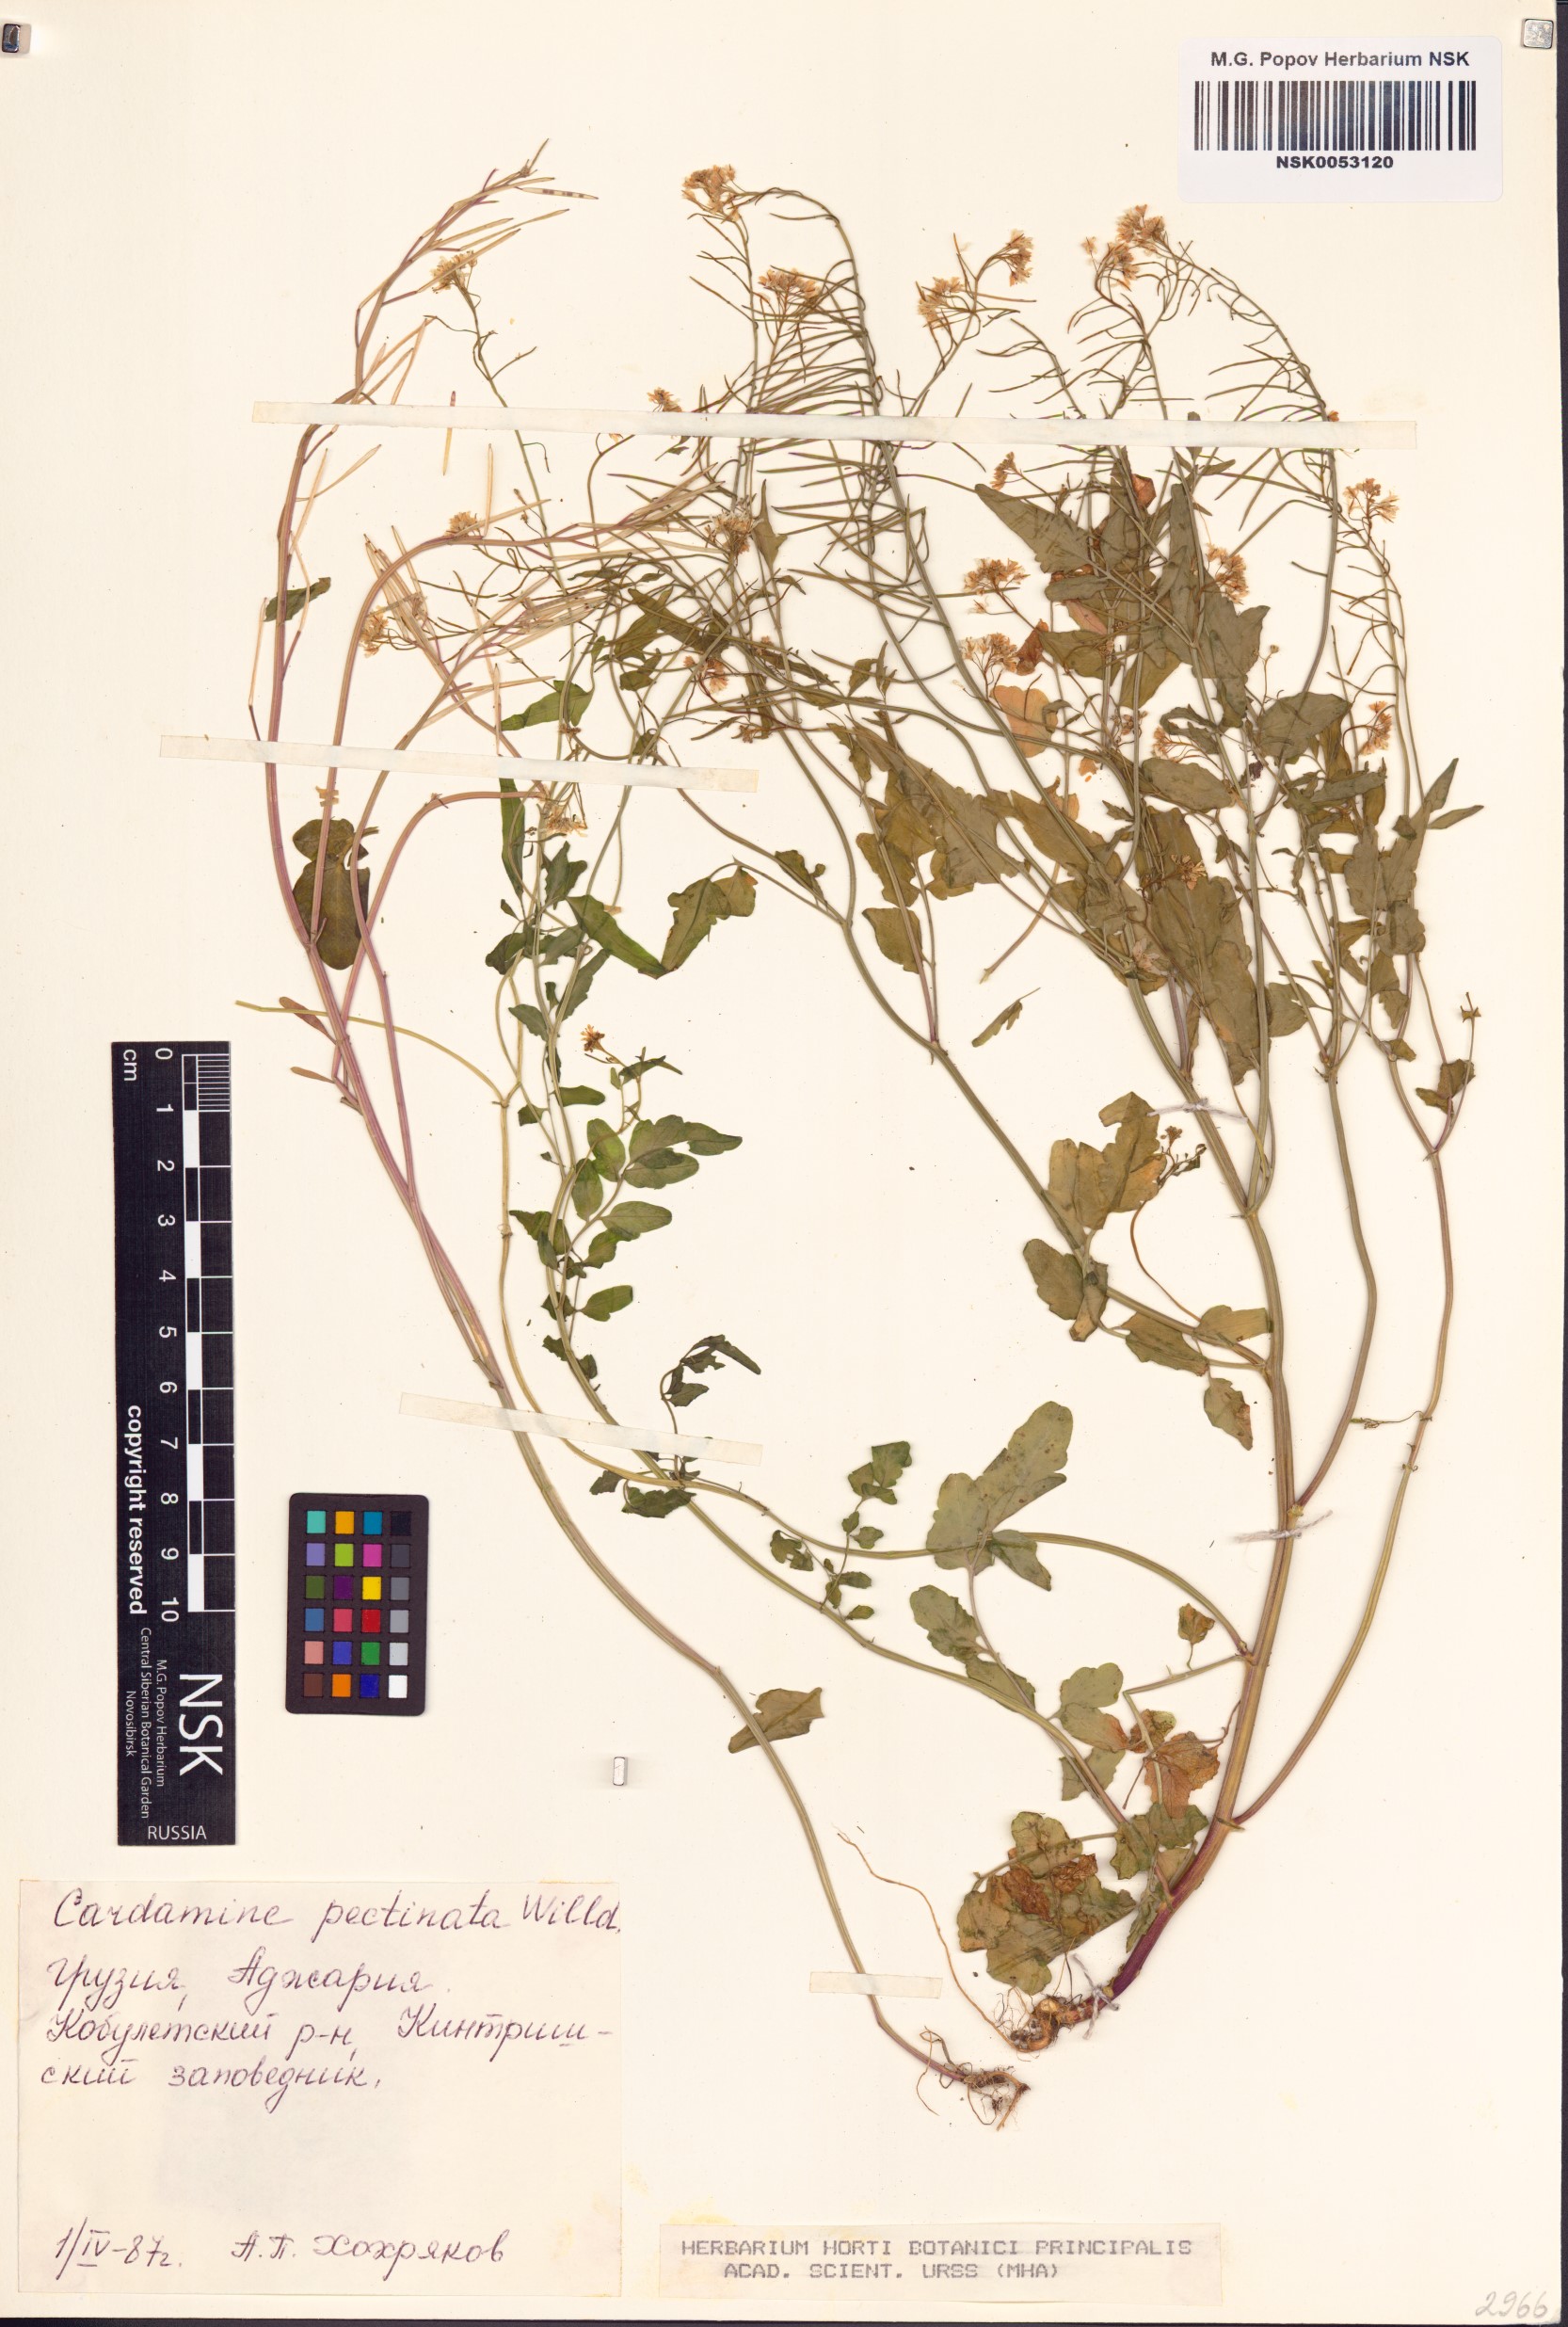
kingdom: Plantae
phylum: Tracheophyta
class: Magnoliopsida
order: Brassicales
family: Brassicaceae
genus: Cardamine
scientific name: Cardamine impatiens
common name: Narrow-leaved bitter-cress
